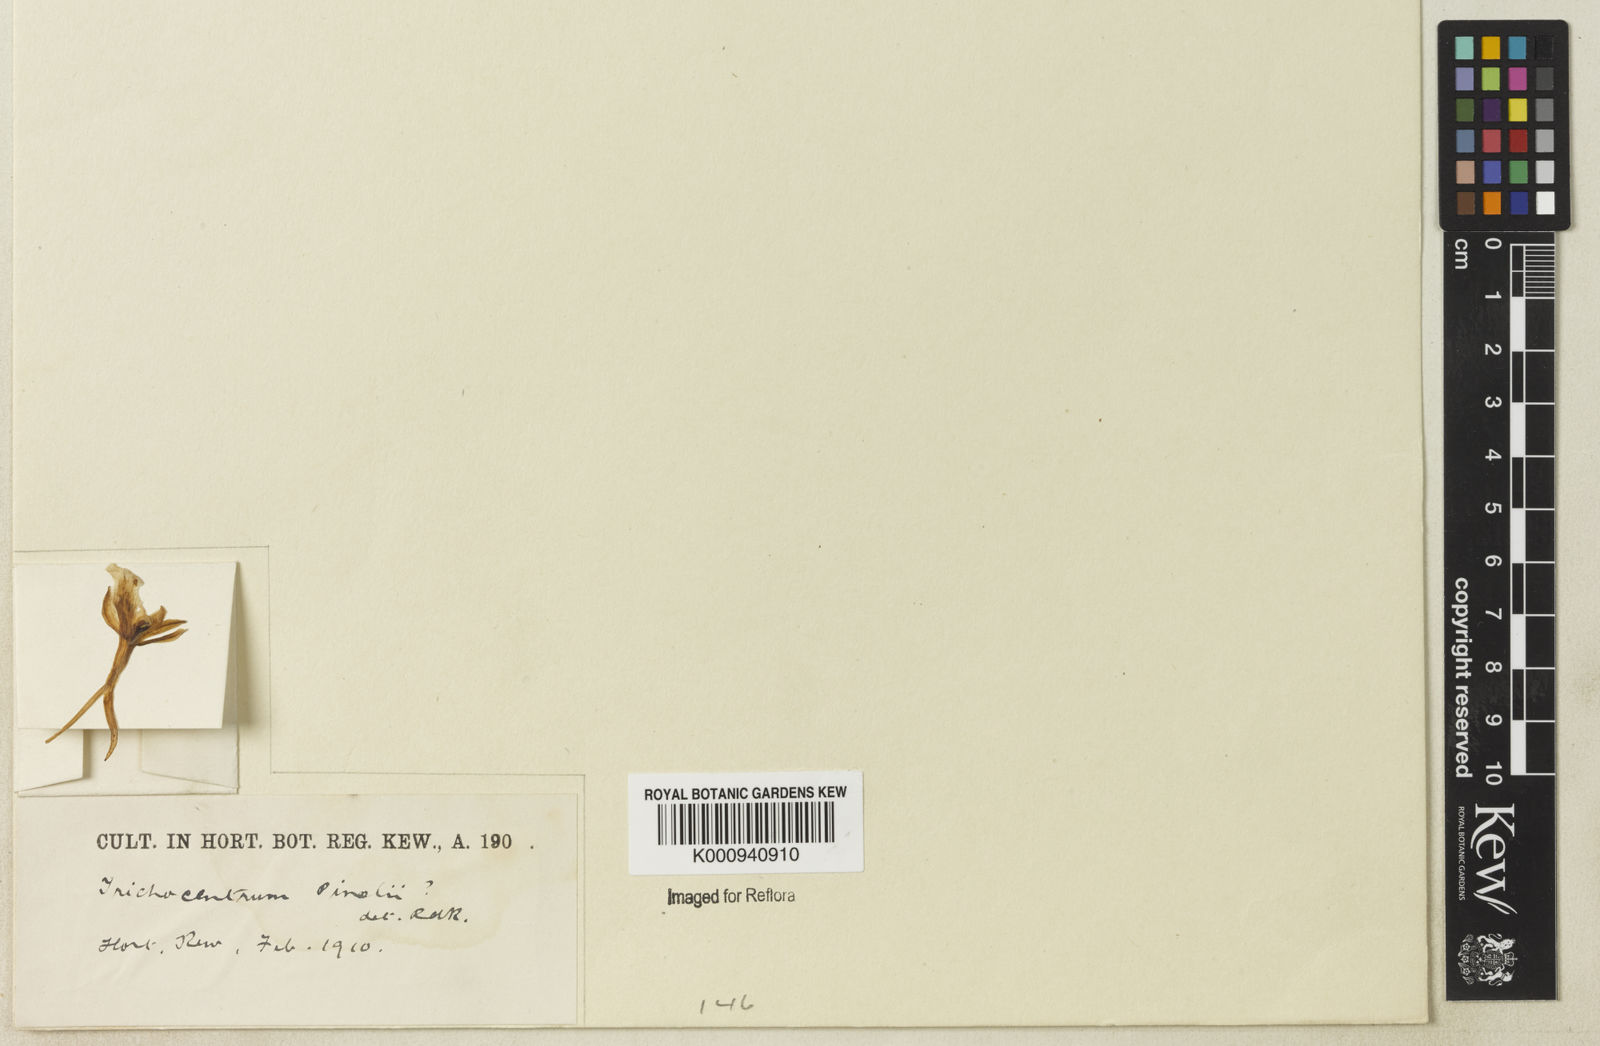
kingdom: Plantae
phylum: Tracheophyta
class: Liliopsida
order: Asparagales
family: Orchidaceae
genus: Trichocentrum
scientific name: Trichocentrum fuscum
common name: Mule-ear orchid
